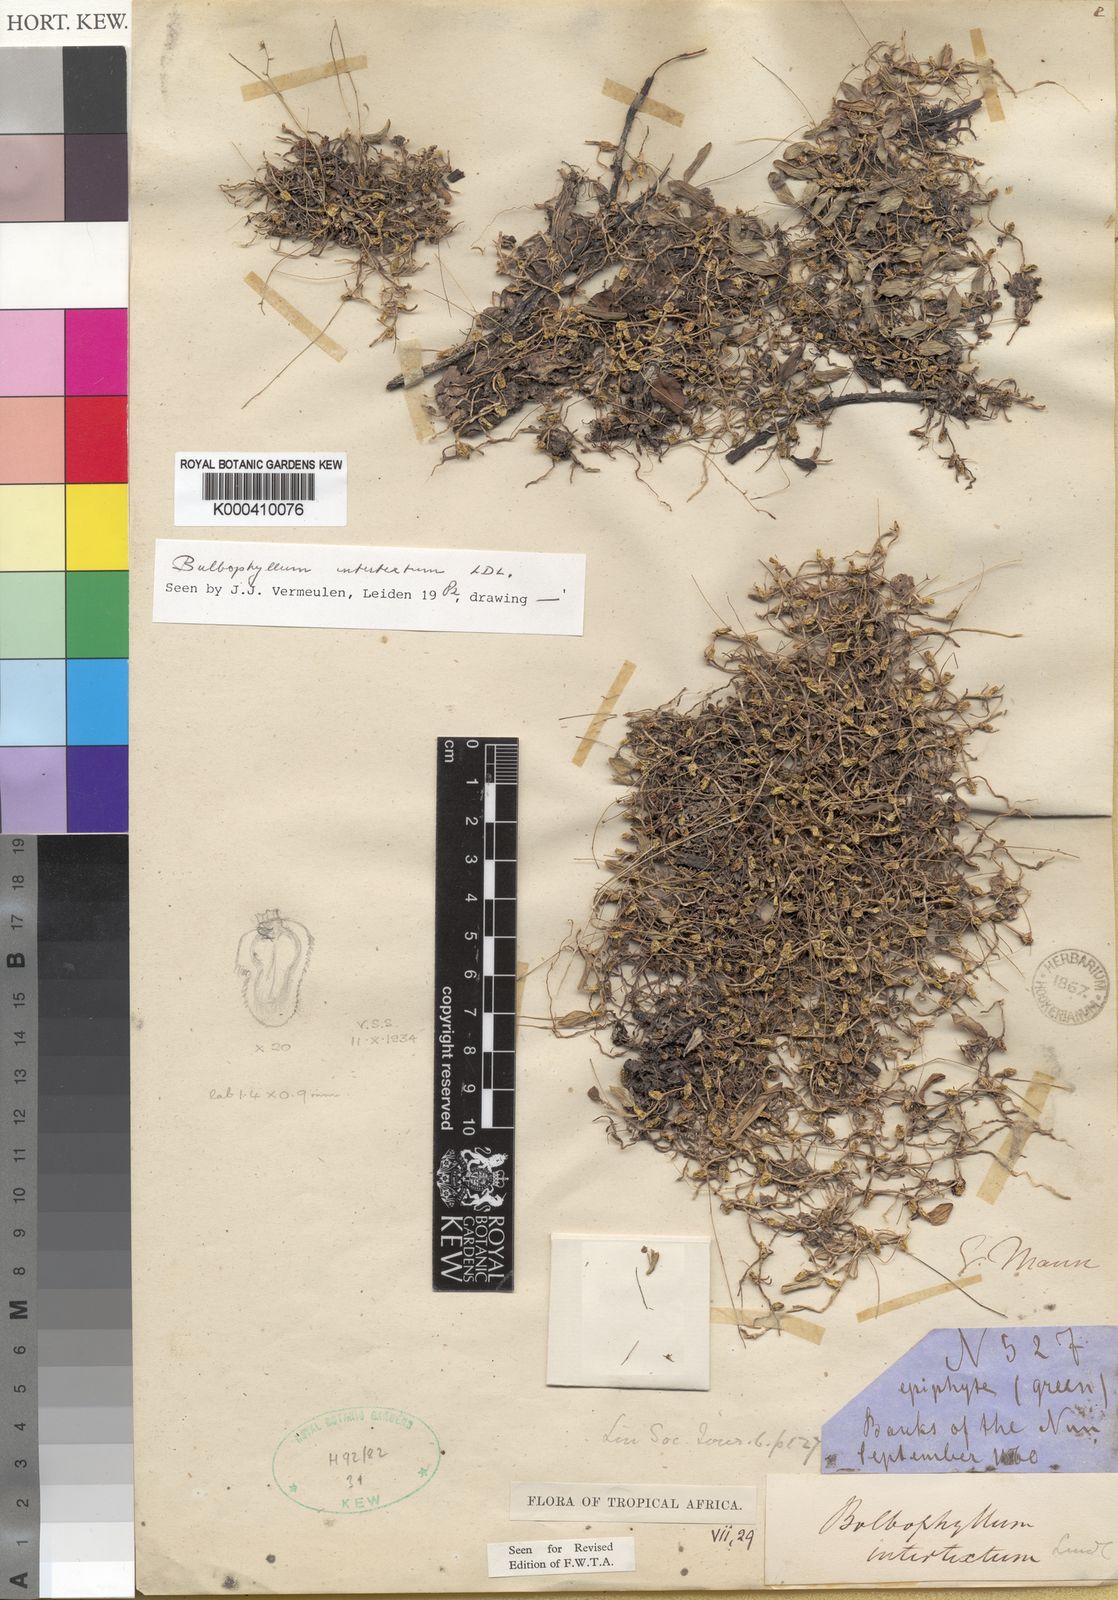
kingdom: Plantae
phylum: Tracheophyta
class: Liliopsida
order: Asparagales
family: Orchidaceae
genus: Bulbophyllum
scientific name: Bulbophyllum intertextum
